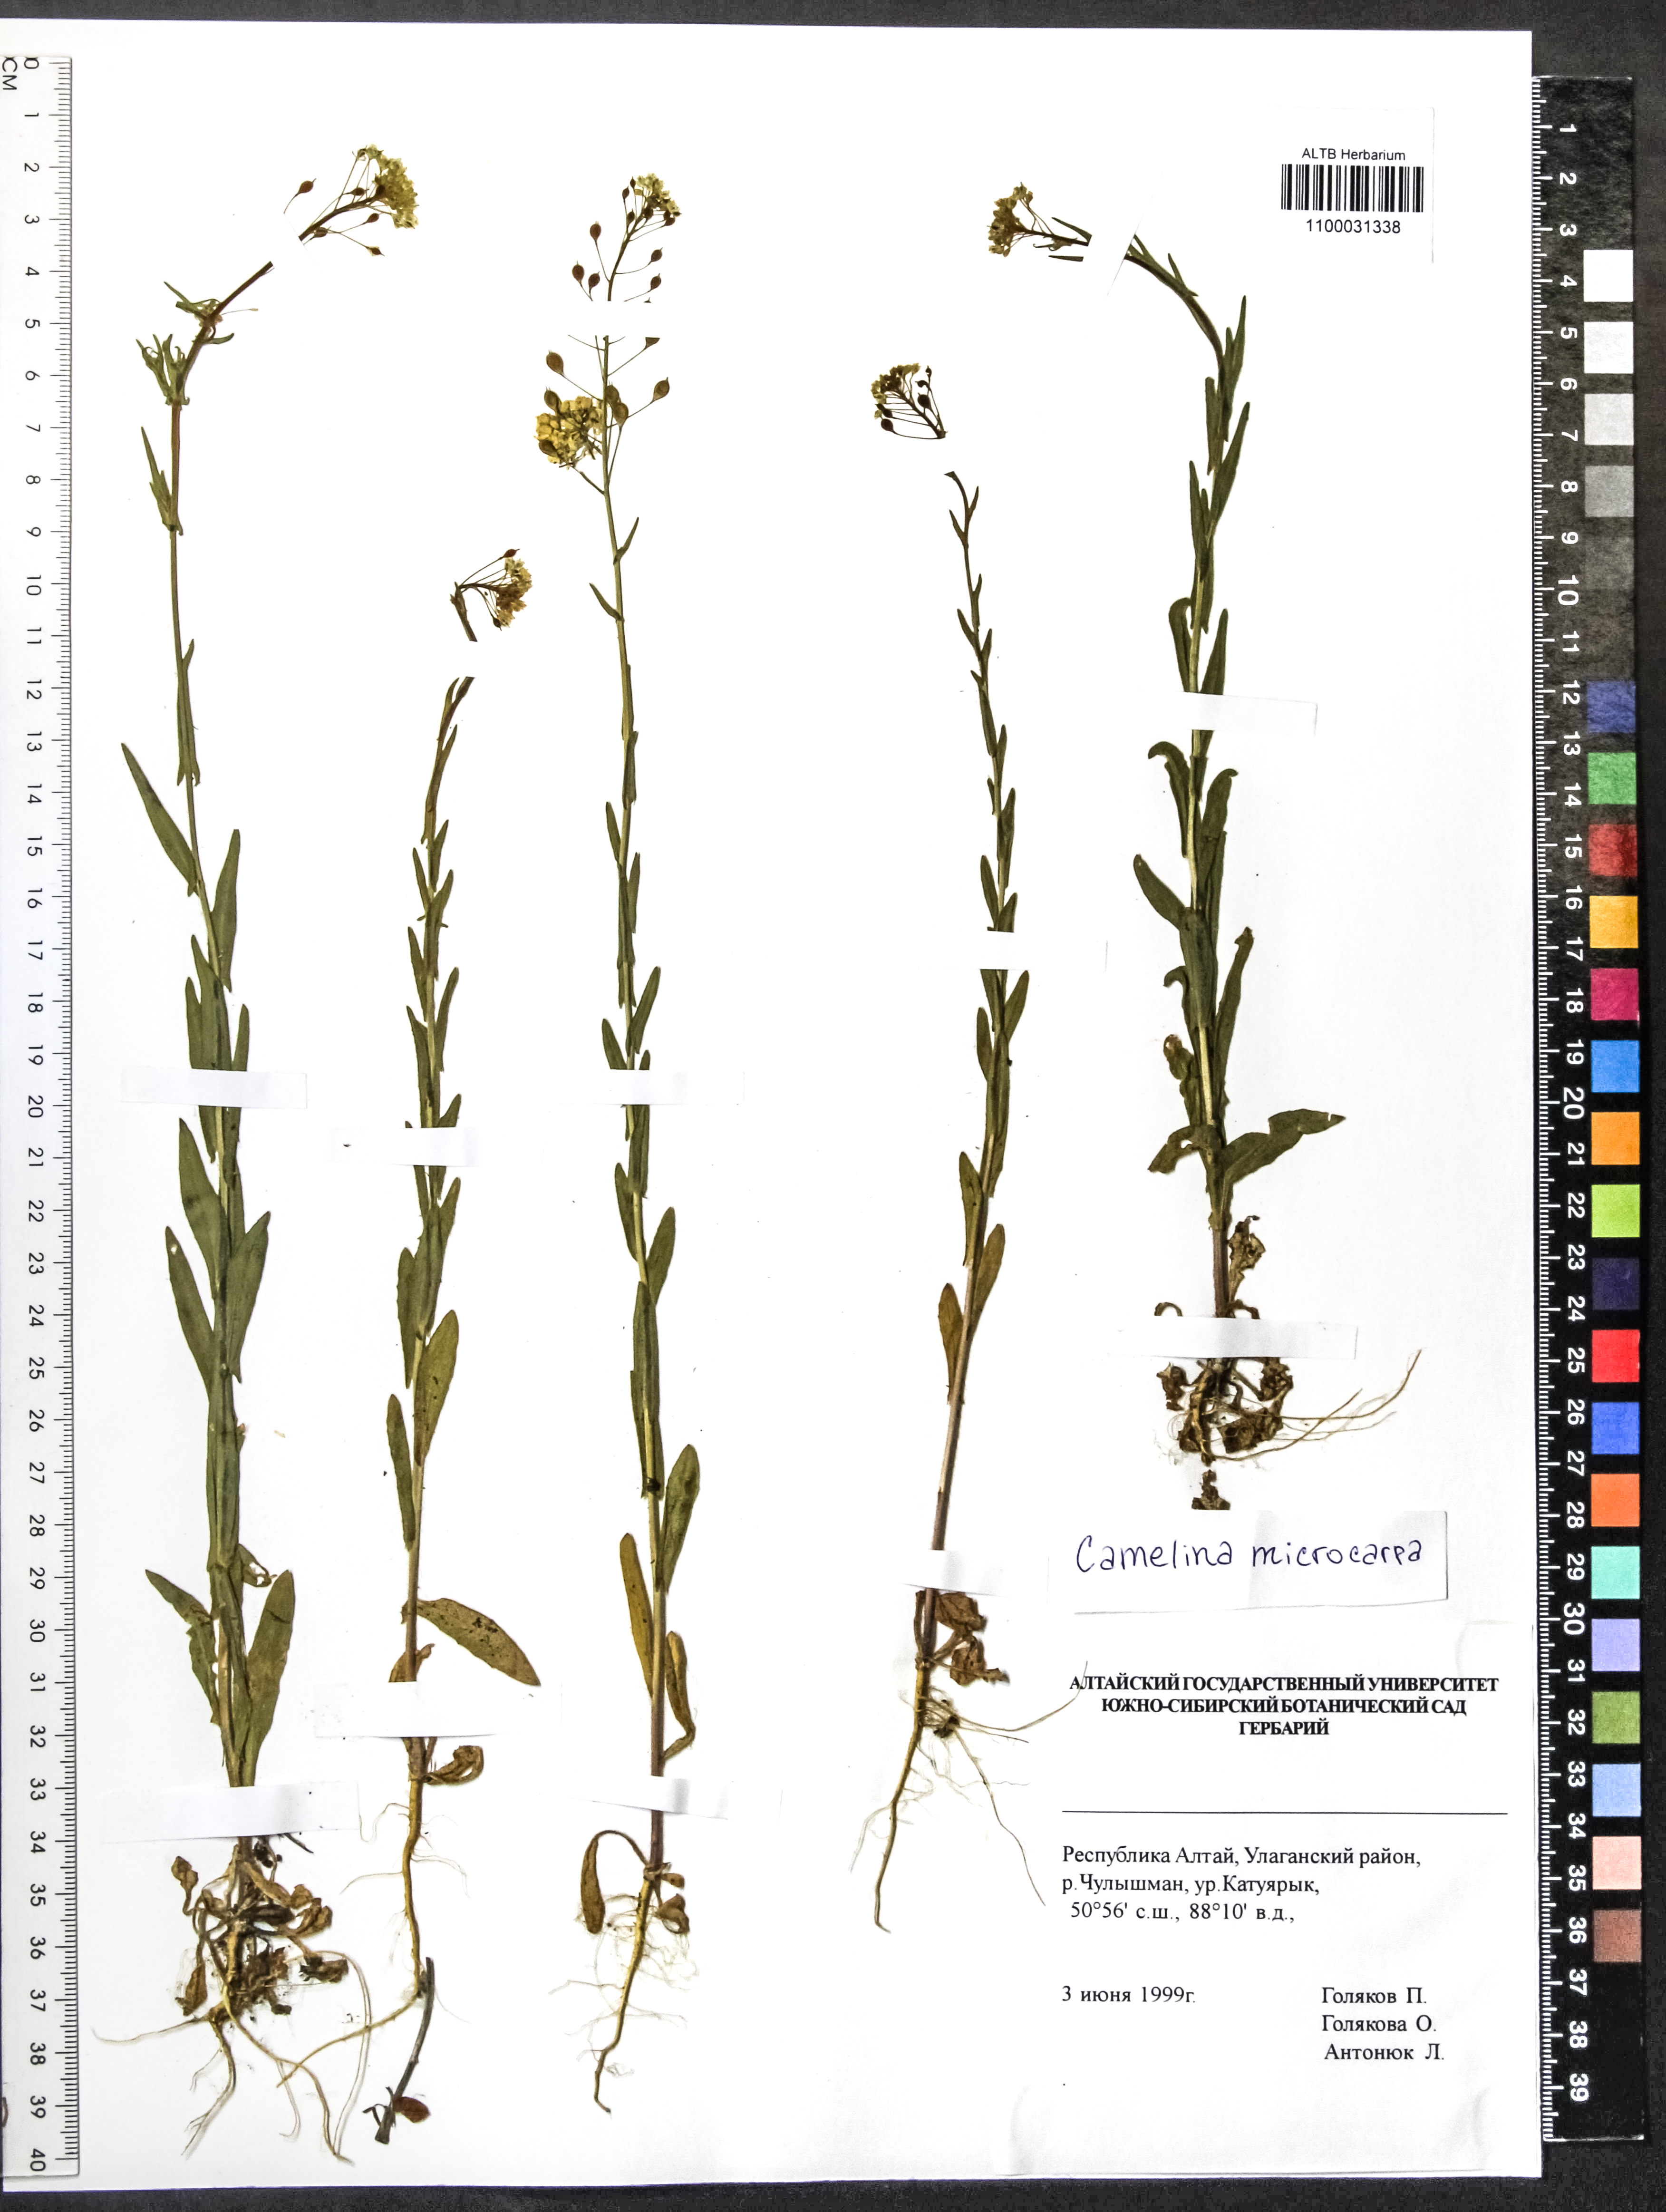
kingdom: Plantae
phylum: Tracheophyta
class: Magnoliopsida
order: Brassicales
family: Brassicaceae
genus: Camelina
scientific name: Camelina microcarpa
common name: Lesser gold-of-pleasure
